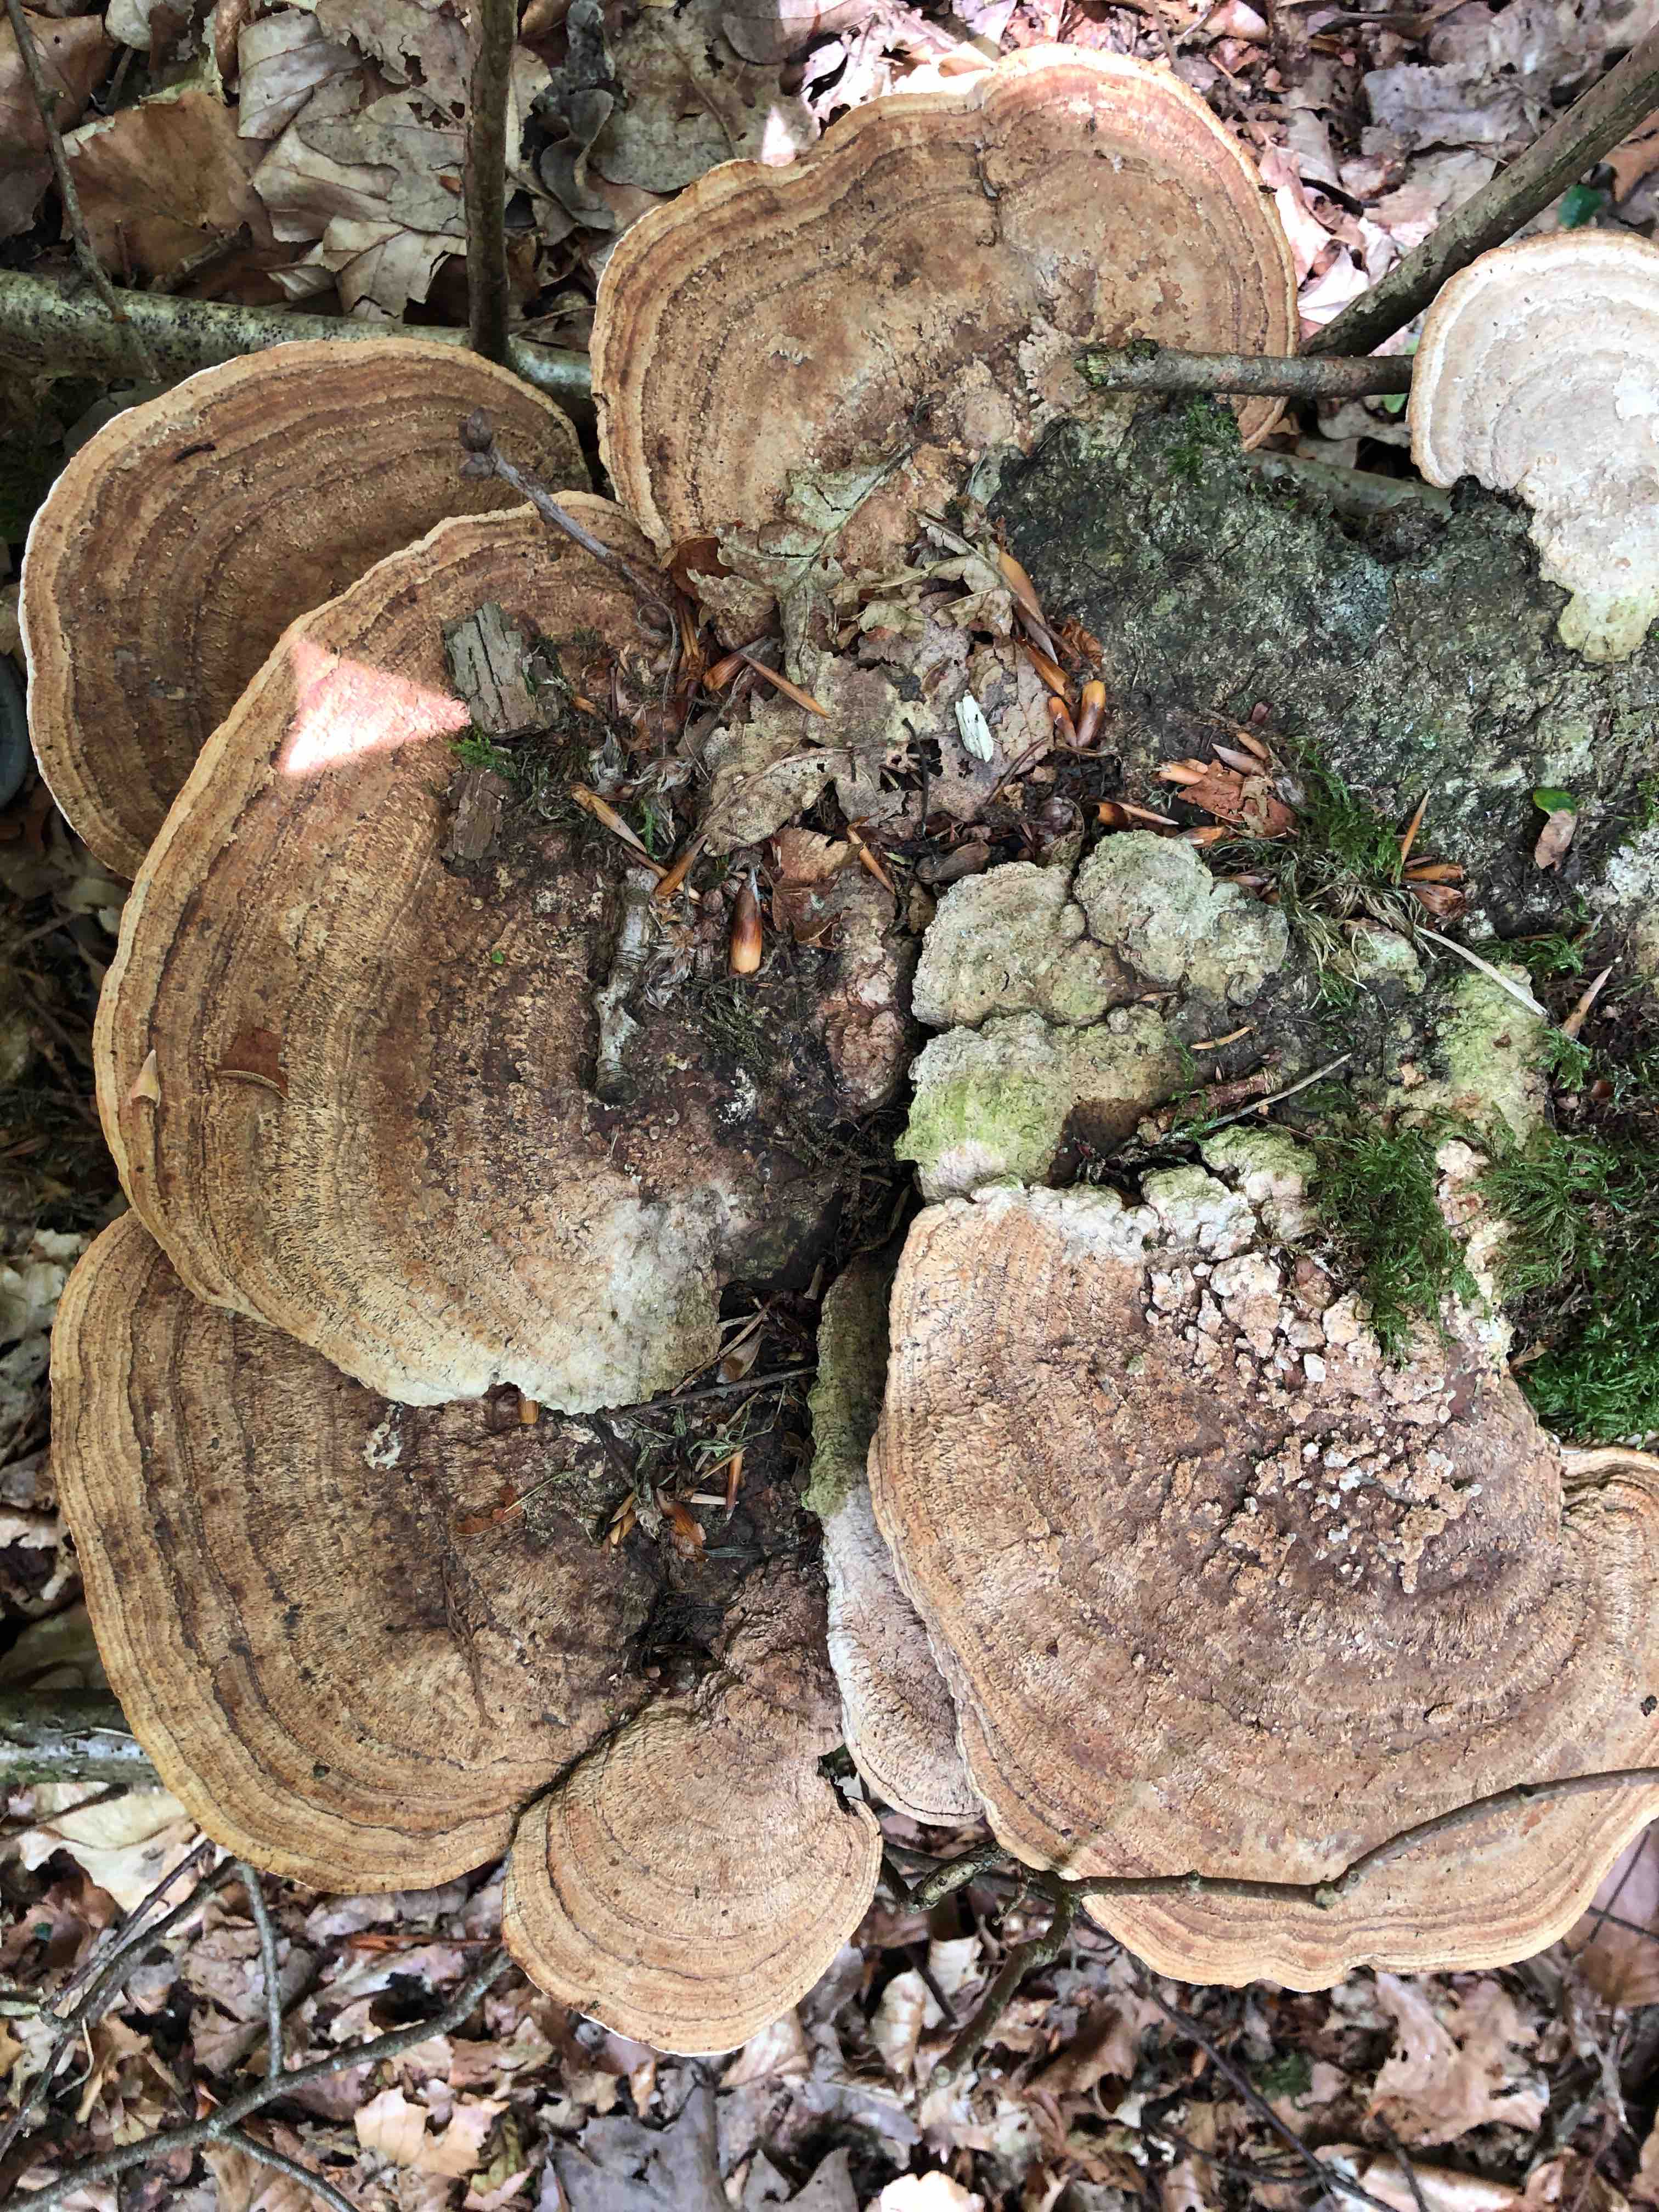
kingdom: Fungi
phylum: Basidiomycota
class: Agaricomycetes
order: Polyporales
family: Fomitopsidaceae
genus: Daedalea
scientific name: Daedalea quercina
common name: ege-labyrintsvamp
